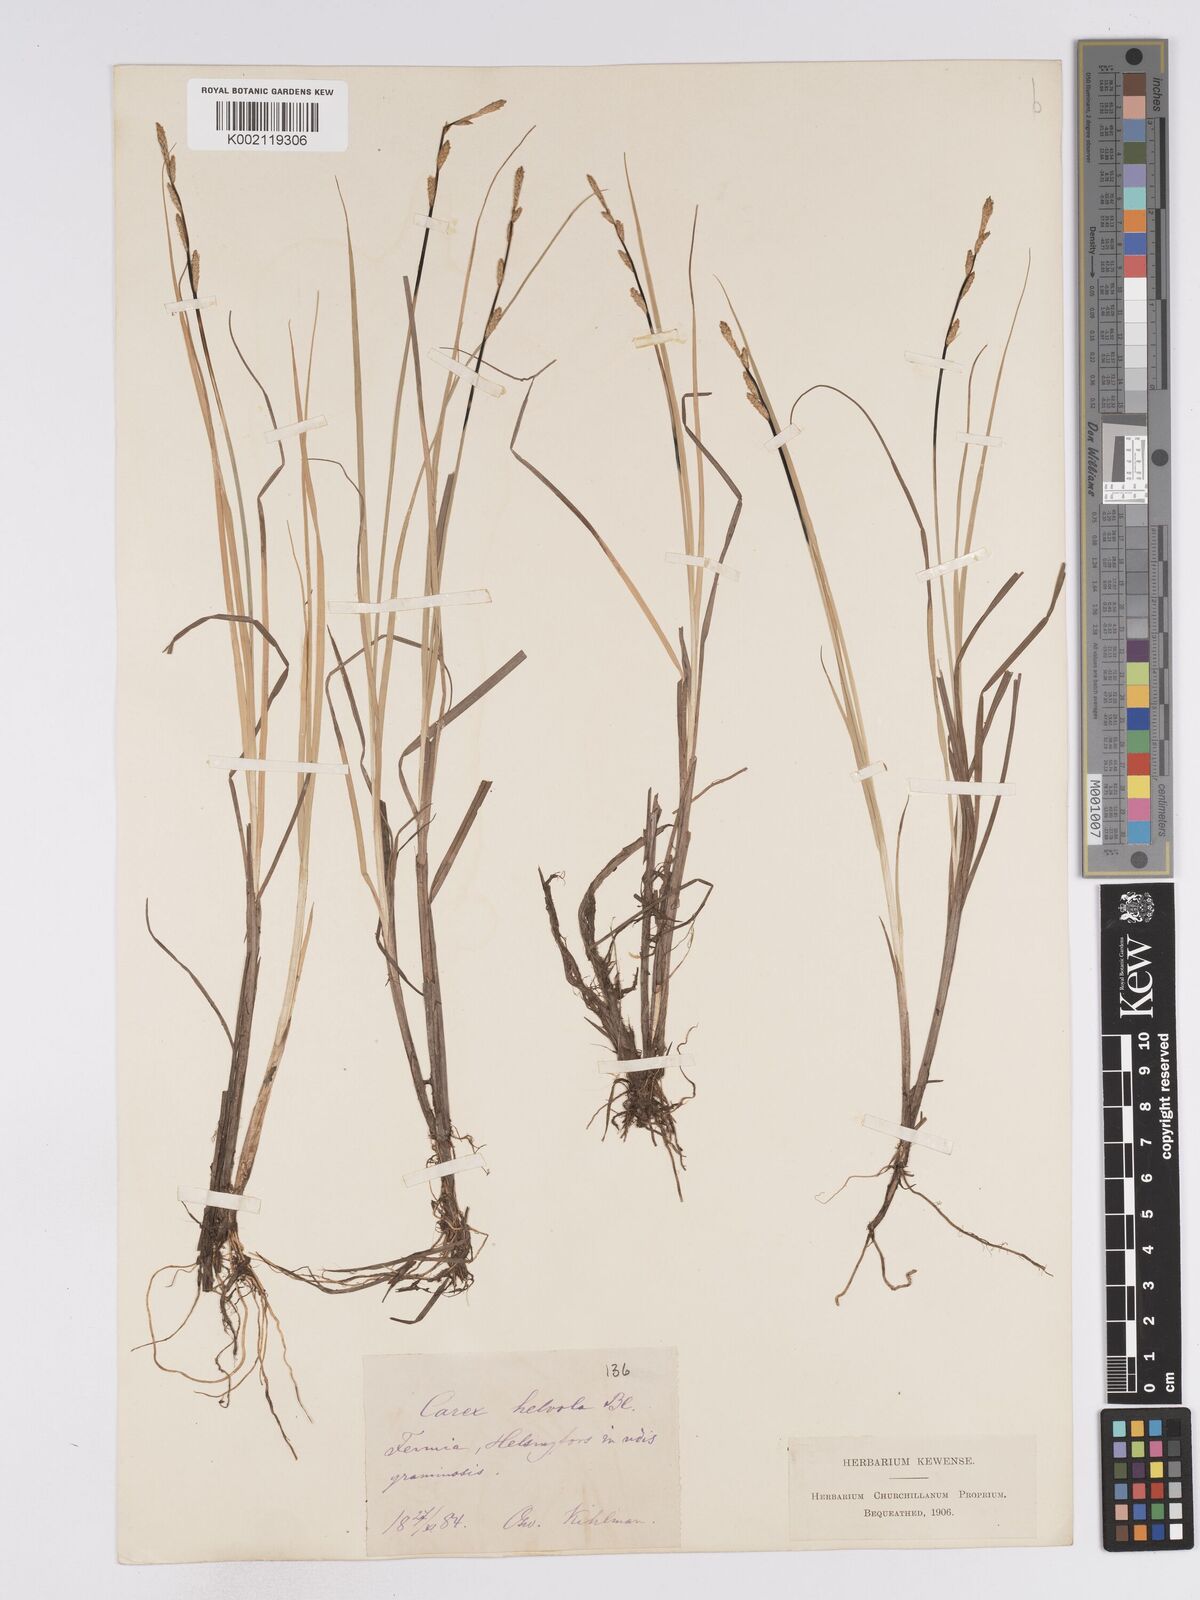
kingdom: Plantae
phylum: Tracheophyta
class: Liliopsida
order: Poales
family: Cyperaceae
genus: Carex
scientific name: Carex
